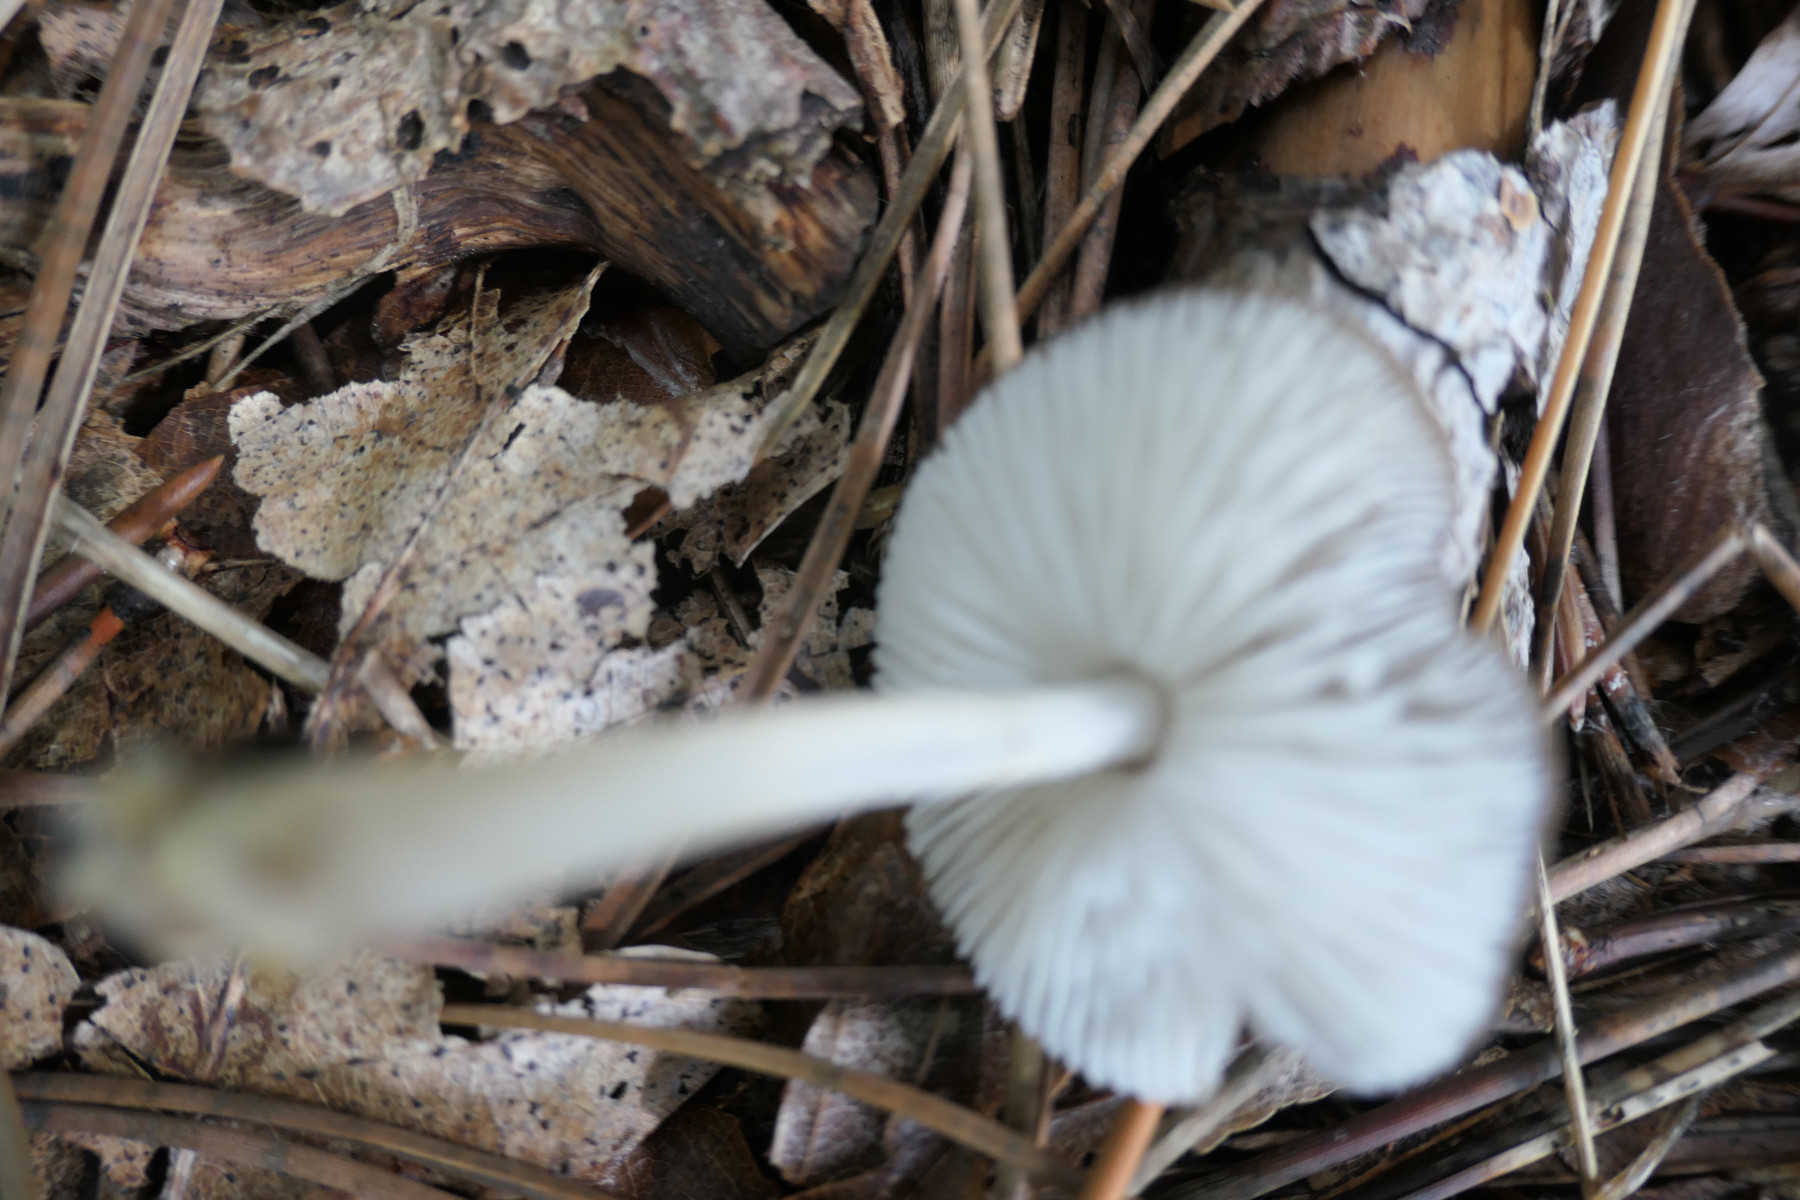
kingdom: Fungi
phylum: Basidiomycota
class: Agaricomycetes
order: Agaricales
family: Porotheleaceae
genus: Hydropodia
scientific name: Hydropodia subalpina
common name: vår-fnugfod
